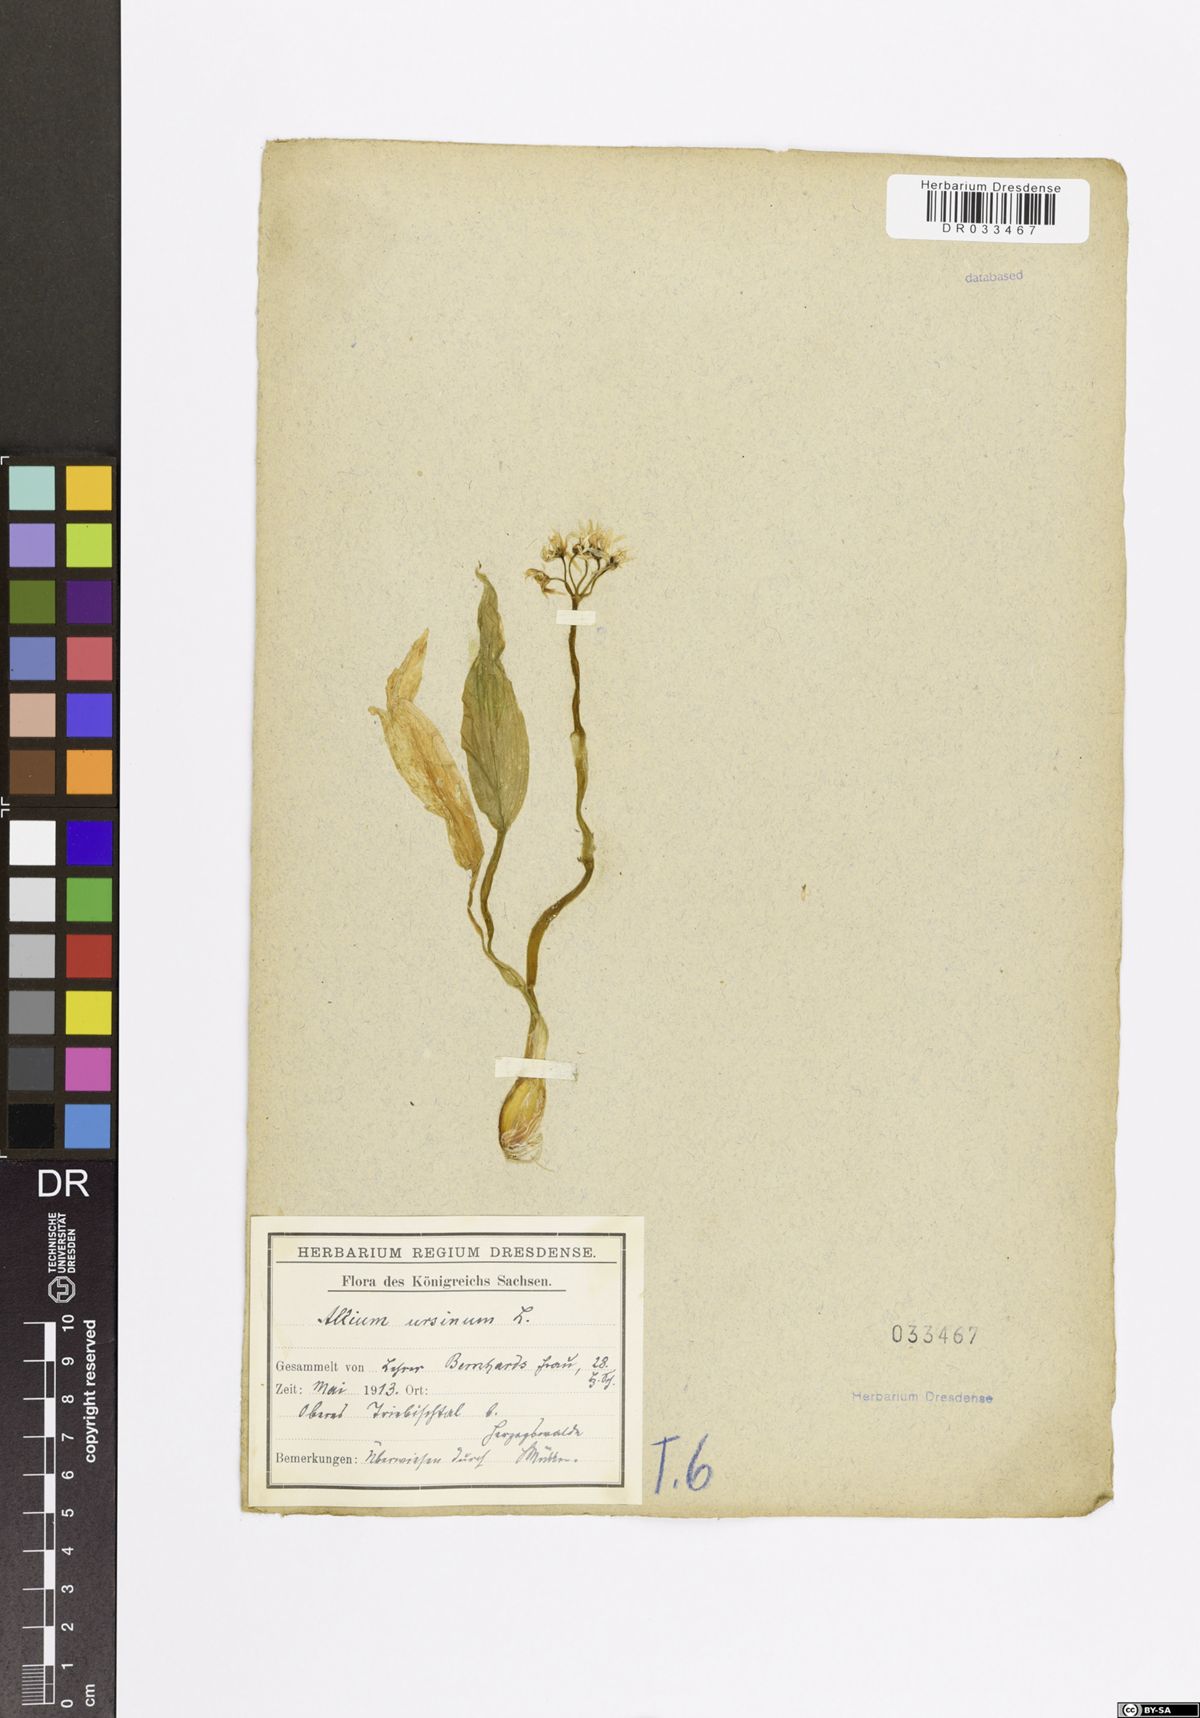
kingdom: Plantae
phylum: Tracheophyta
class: Liliopsida
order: Asparagales
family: Amaryllidaceae
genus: Allium
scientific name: Allium ursinum
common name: Ramsons
